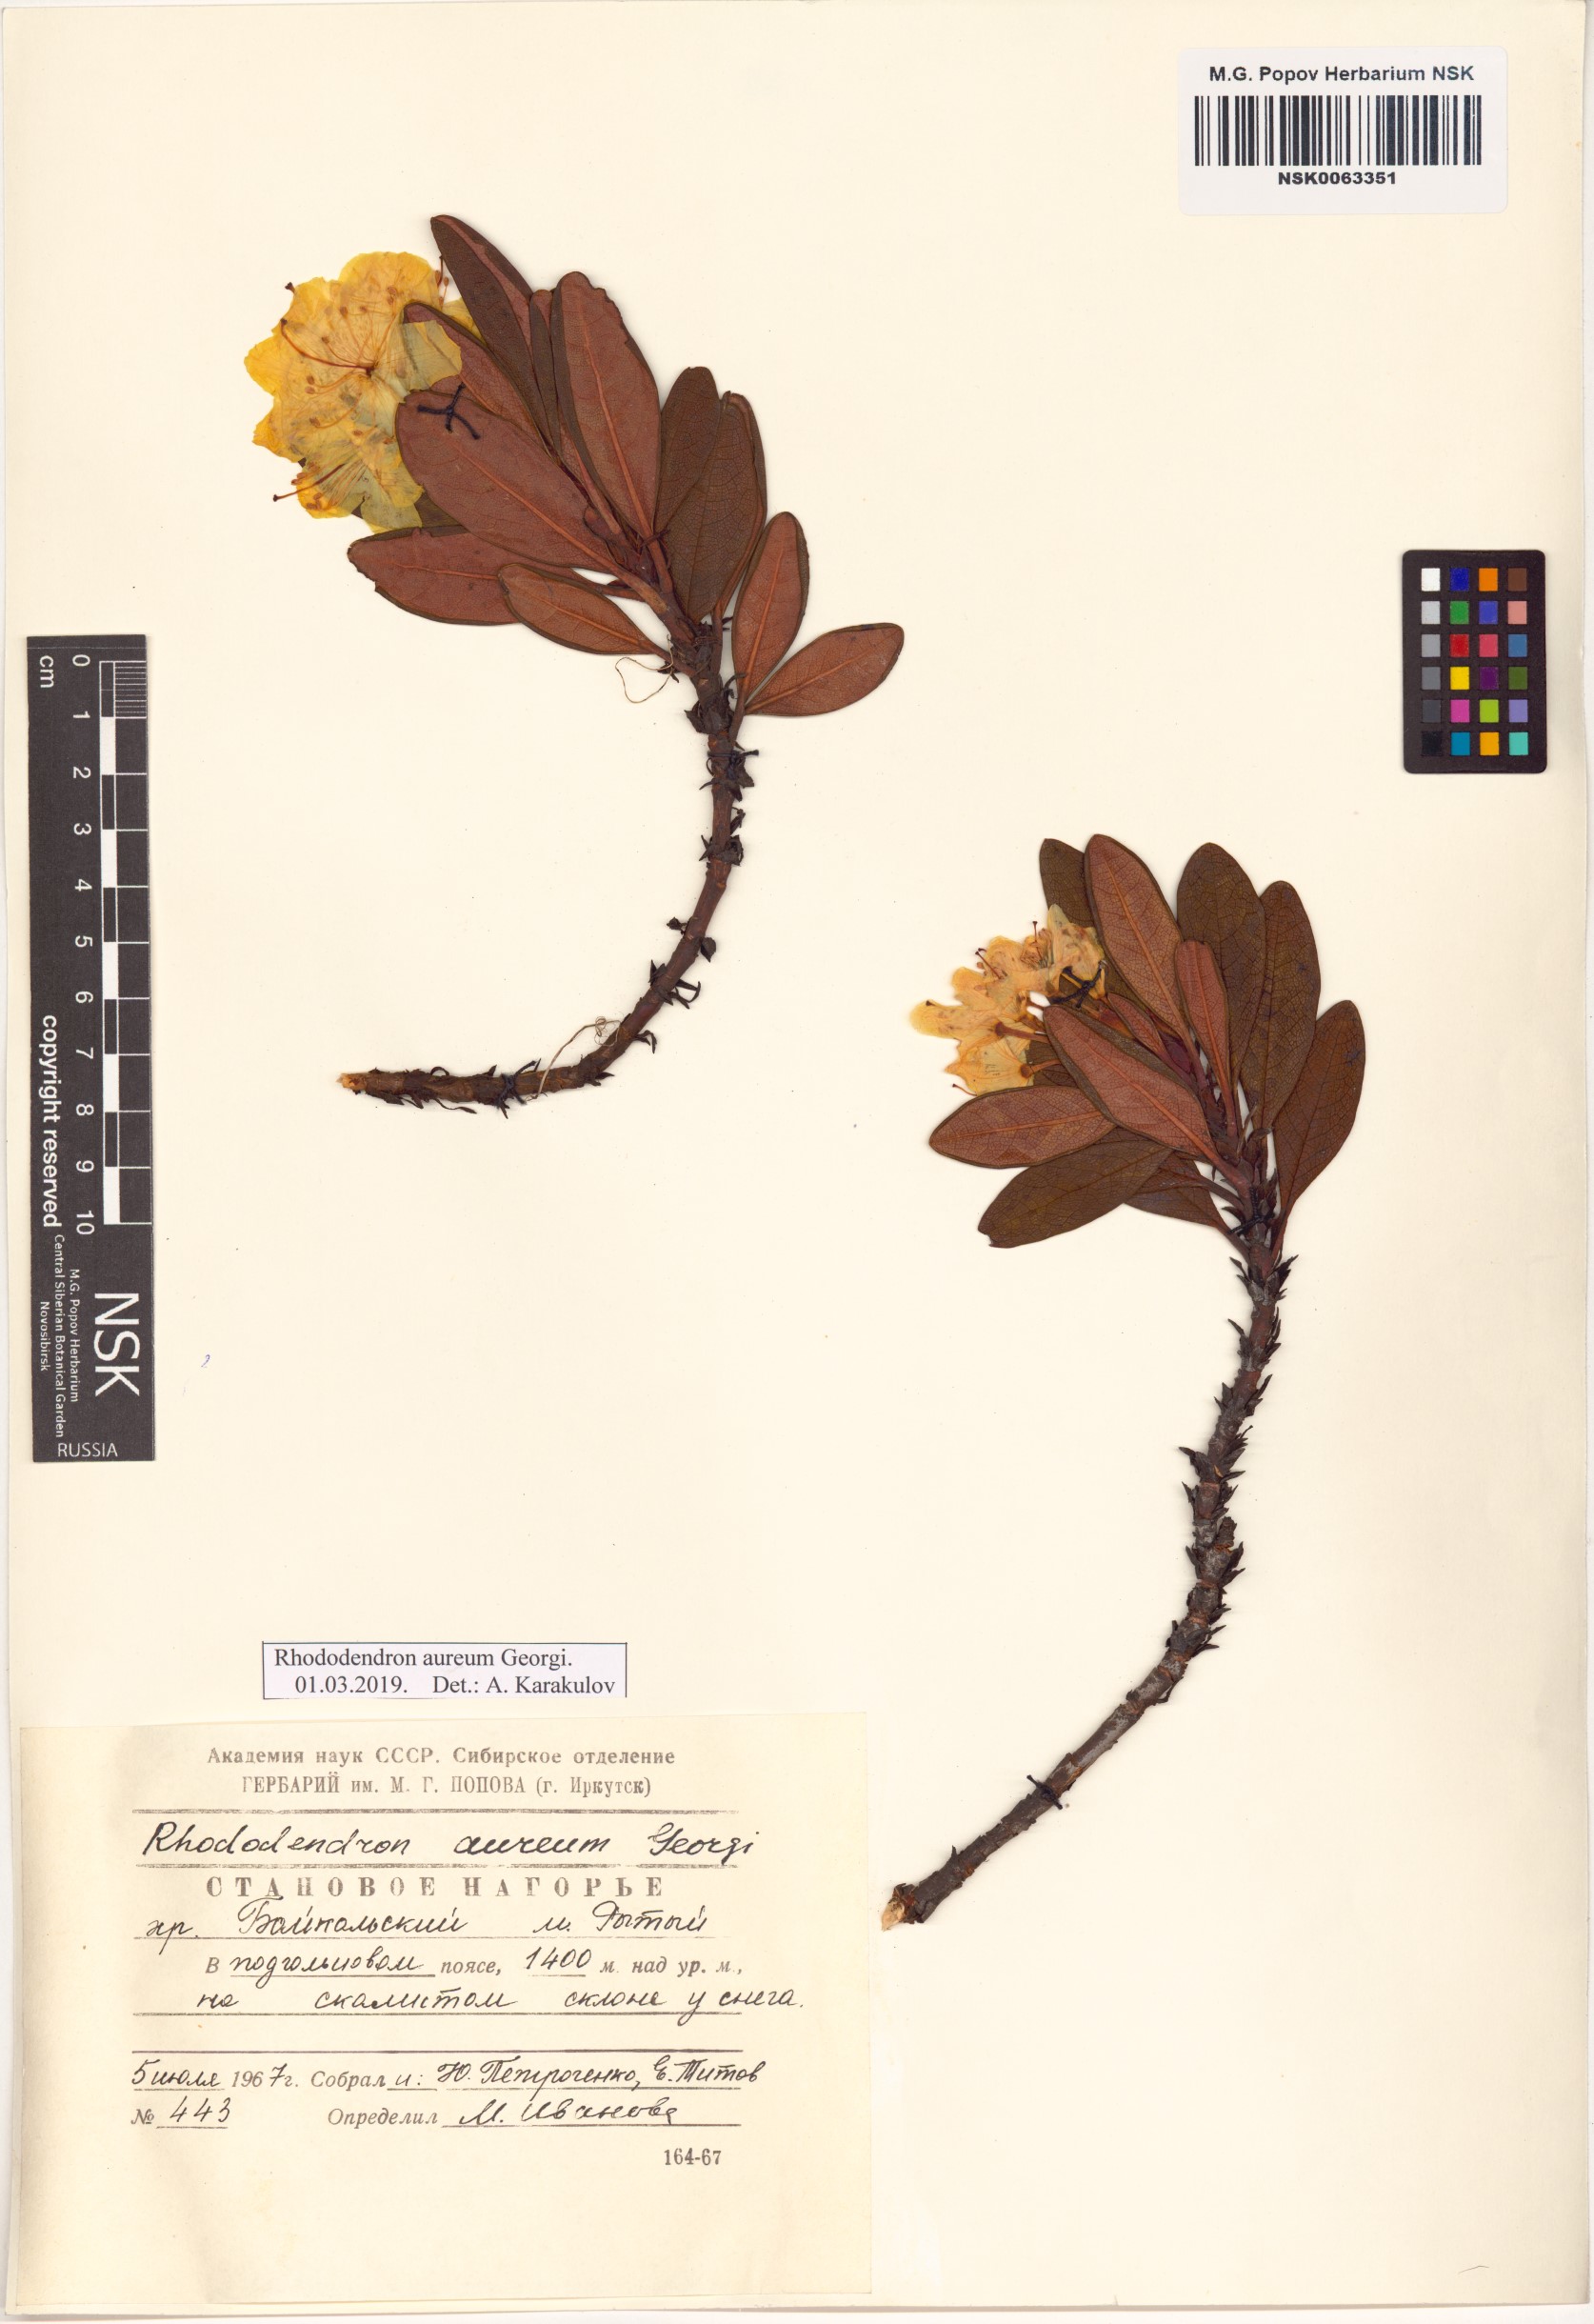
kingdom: Plantae
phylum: Tracheophyta
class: Magnoliopsida
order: Ericales
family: Ericaceae
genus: Rhododendron
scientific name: Rhododendron aureum
